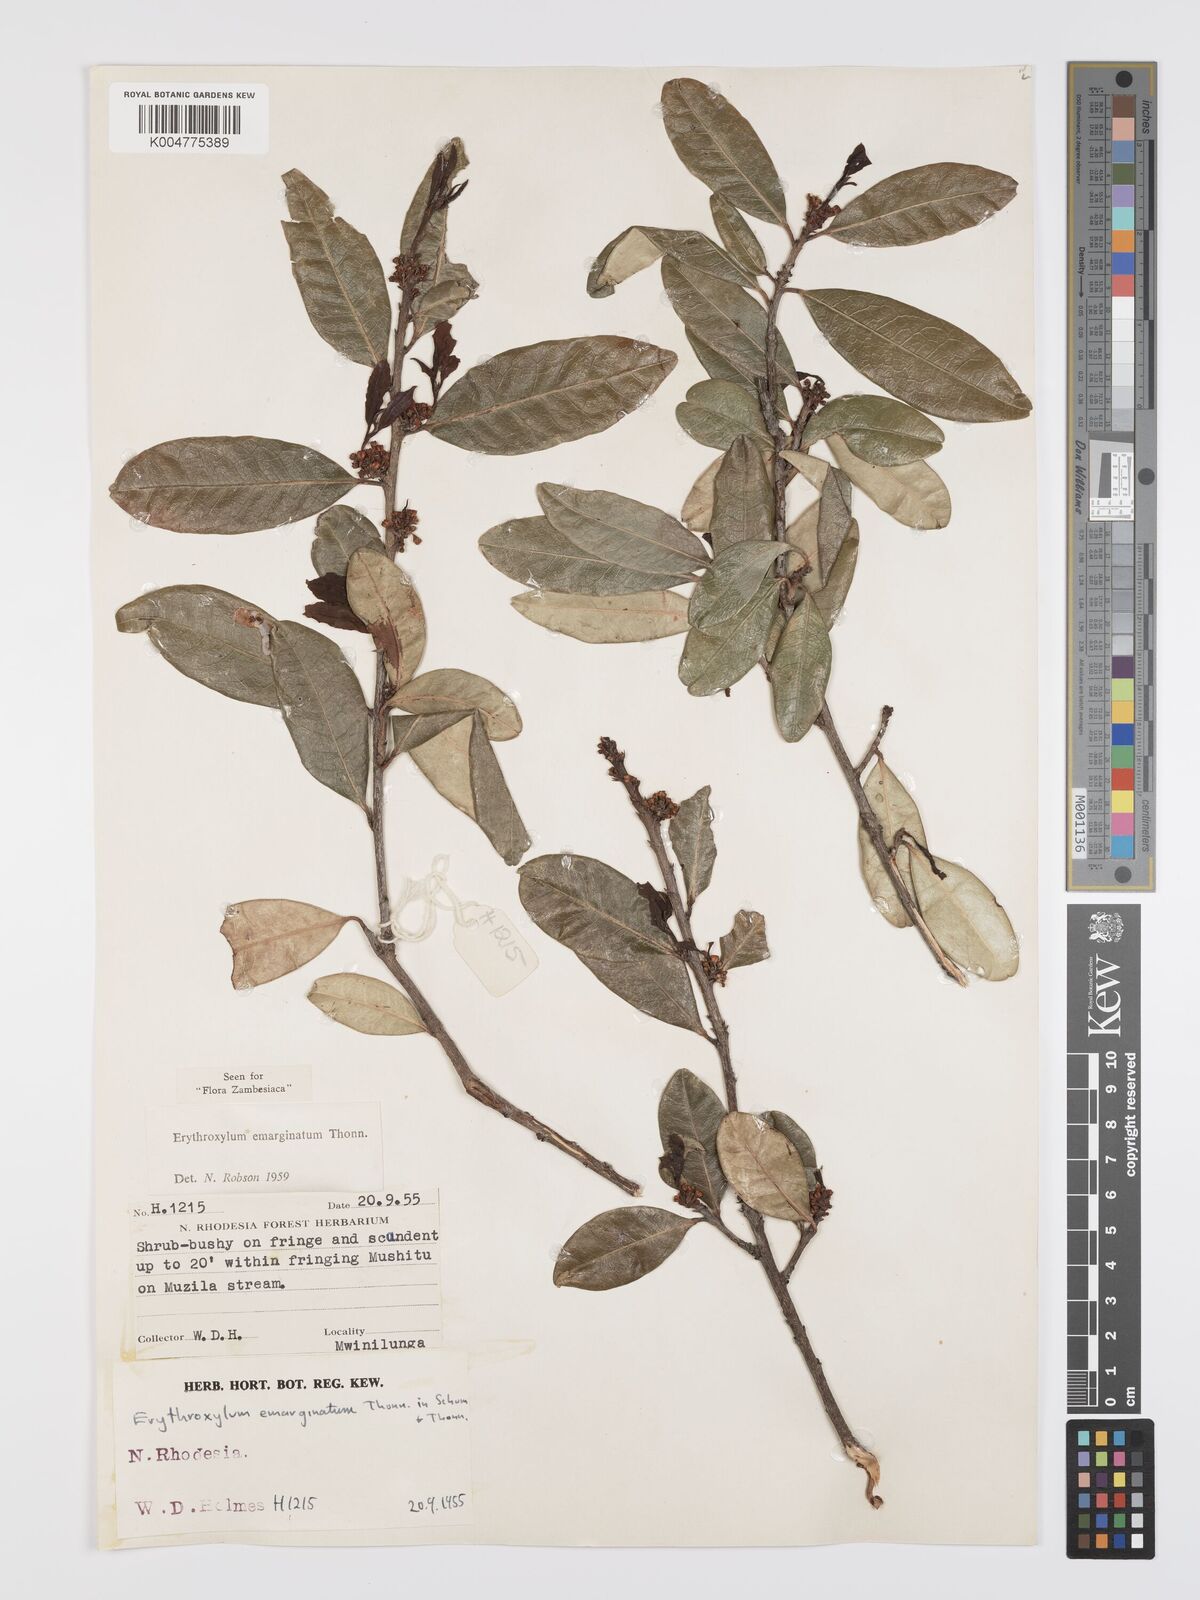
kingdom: Plantae
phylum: Tracheophyta
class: Magnoliopsida
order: Malpighiales
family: Erythroxylaceae
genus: Erythroxylum
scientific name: Erythroxylum emarginatum
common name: African coca-tree
